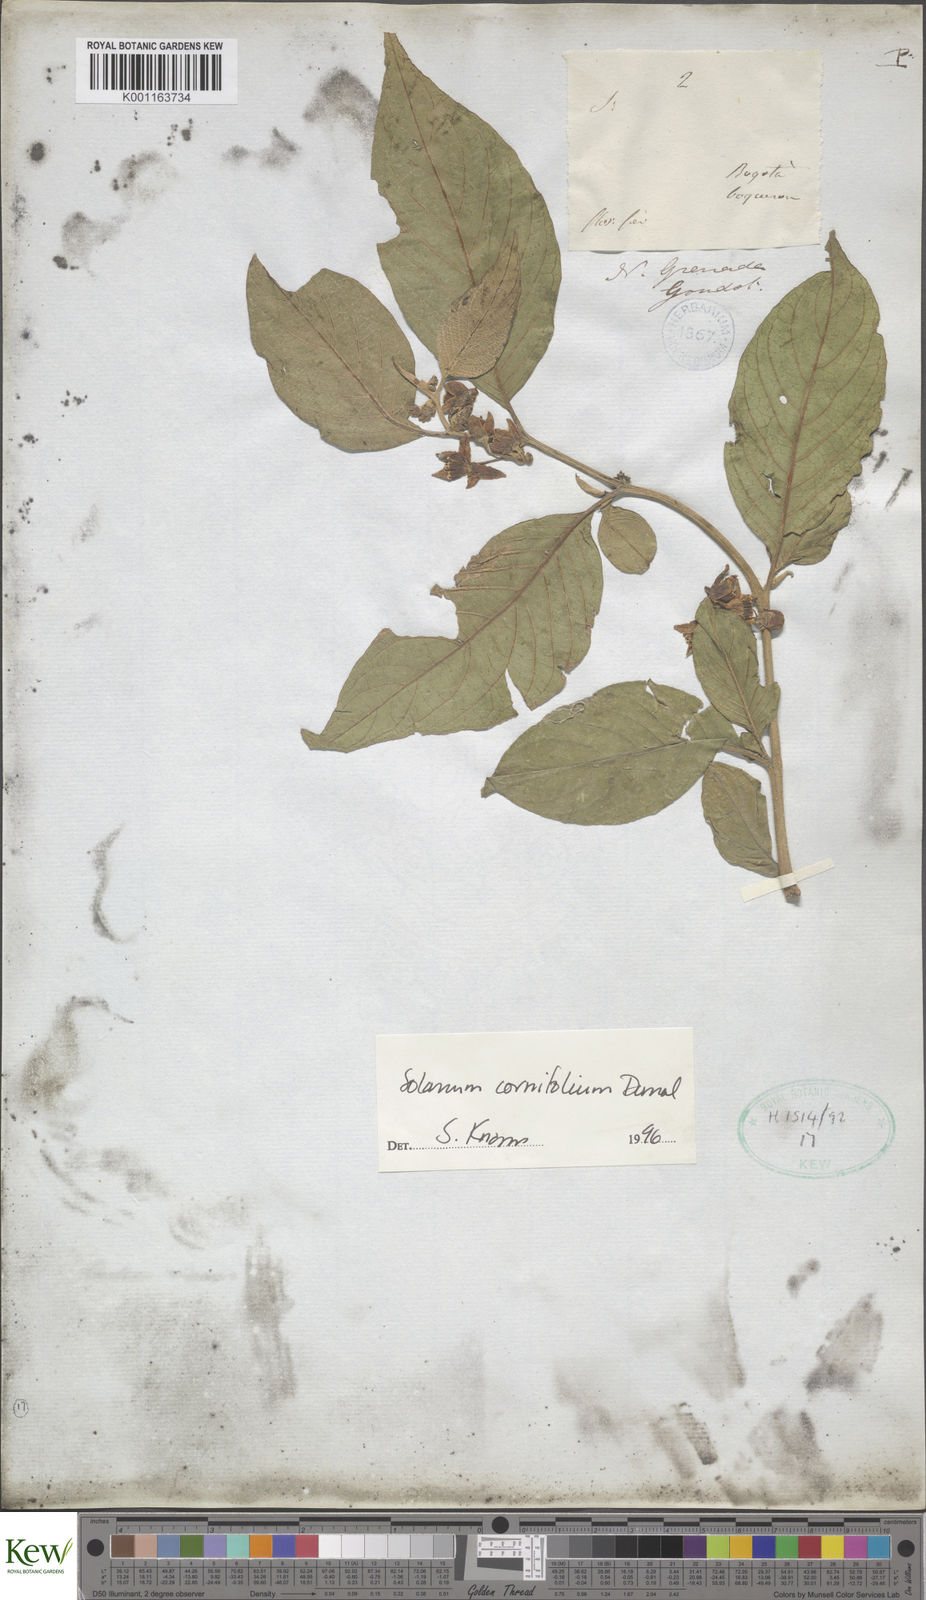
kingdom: Plantae
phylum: Tracheophyta
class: Magnoliopsida
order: Solanales
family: Solanaceae
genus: Solanum
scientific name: Solanum cornifolium
